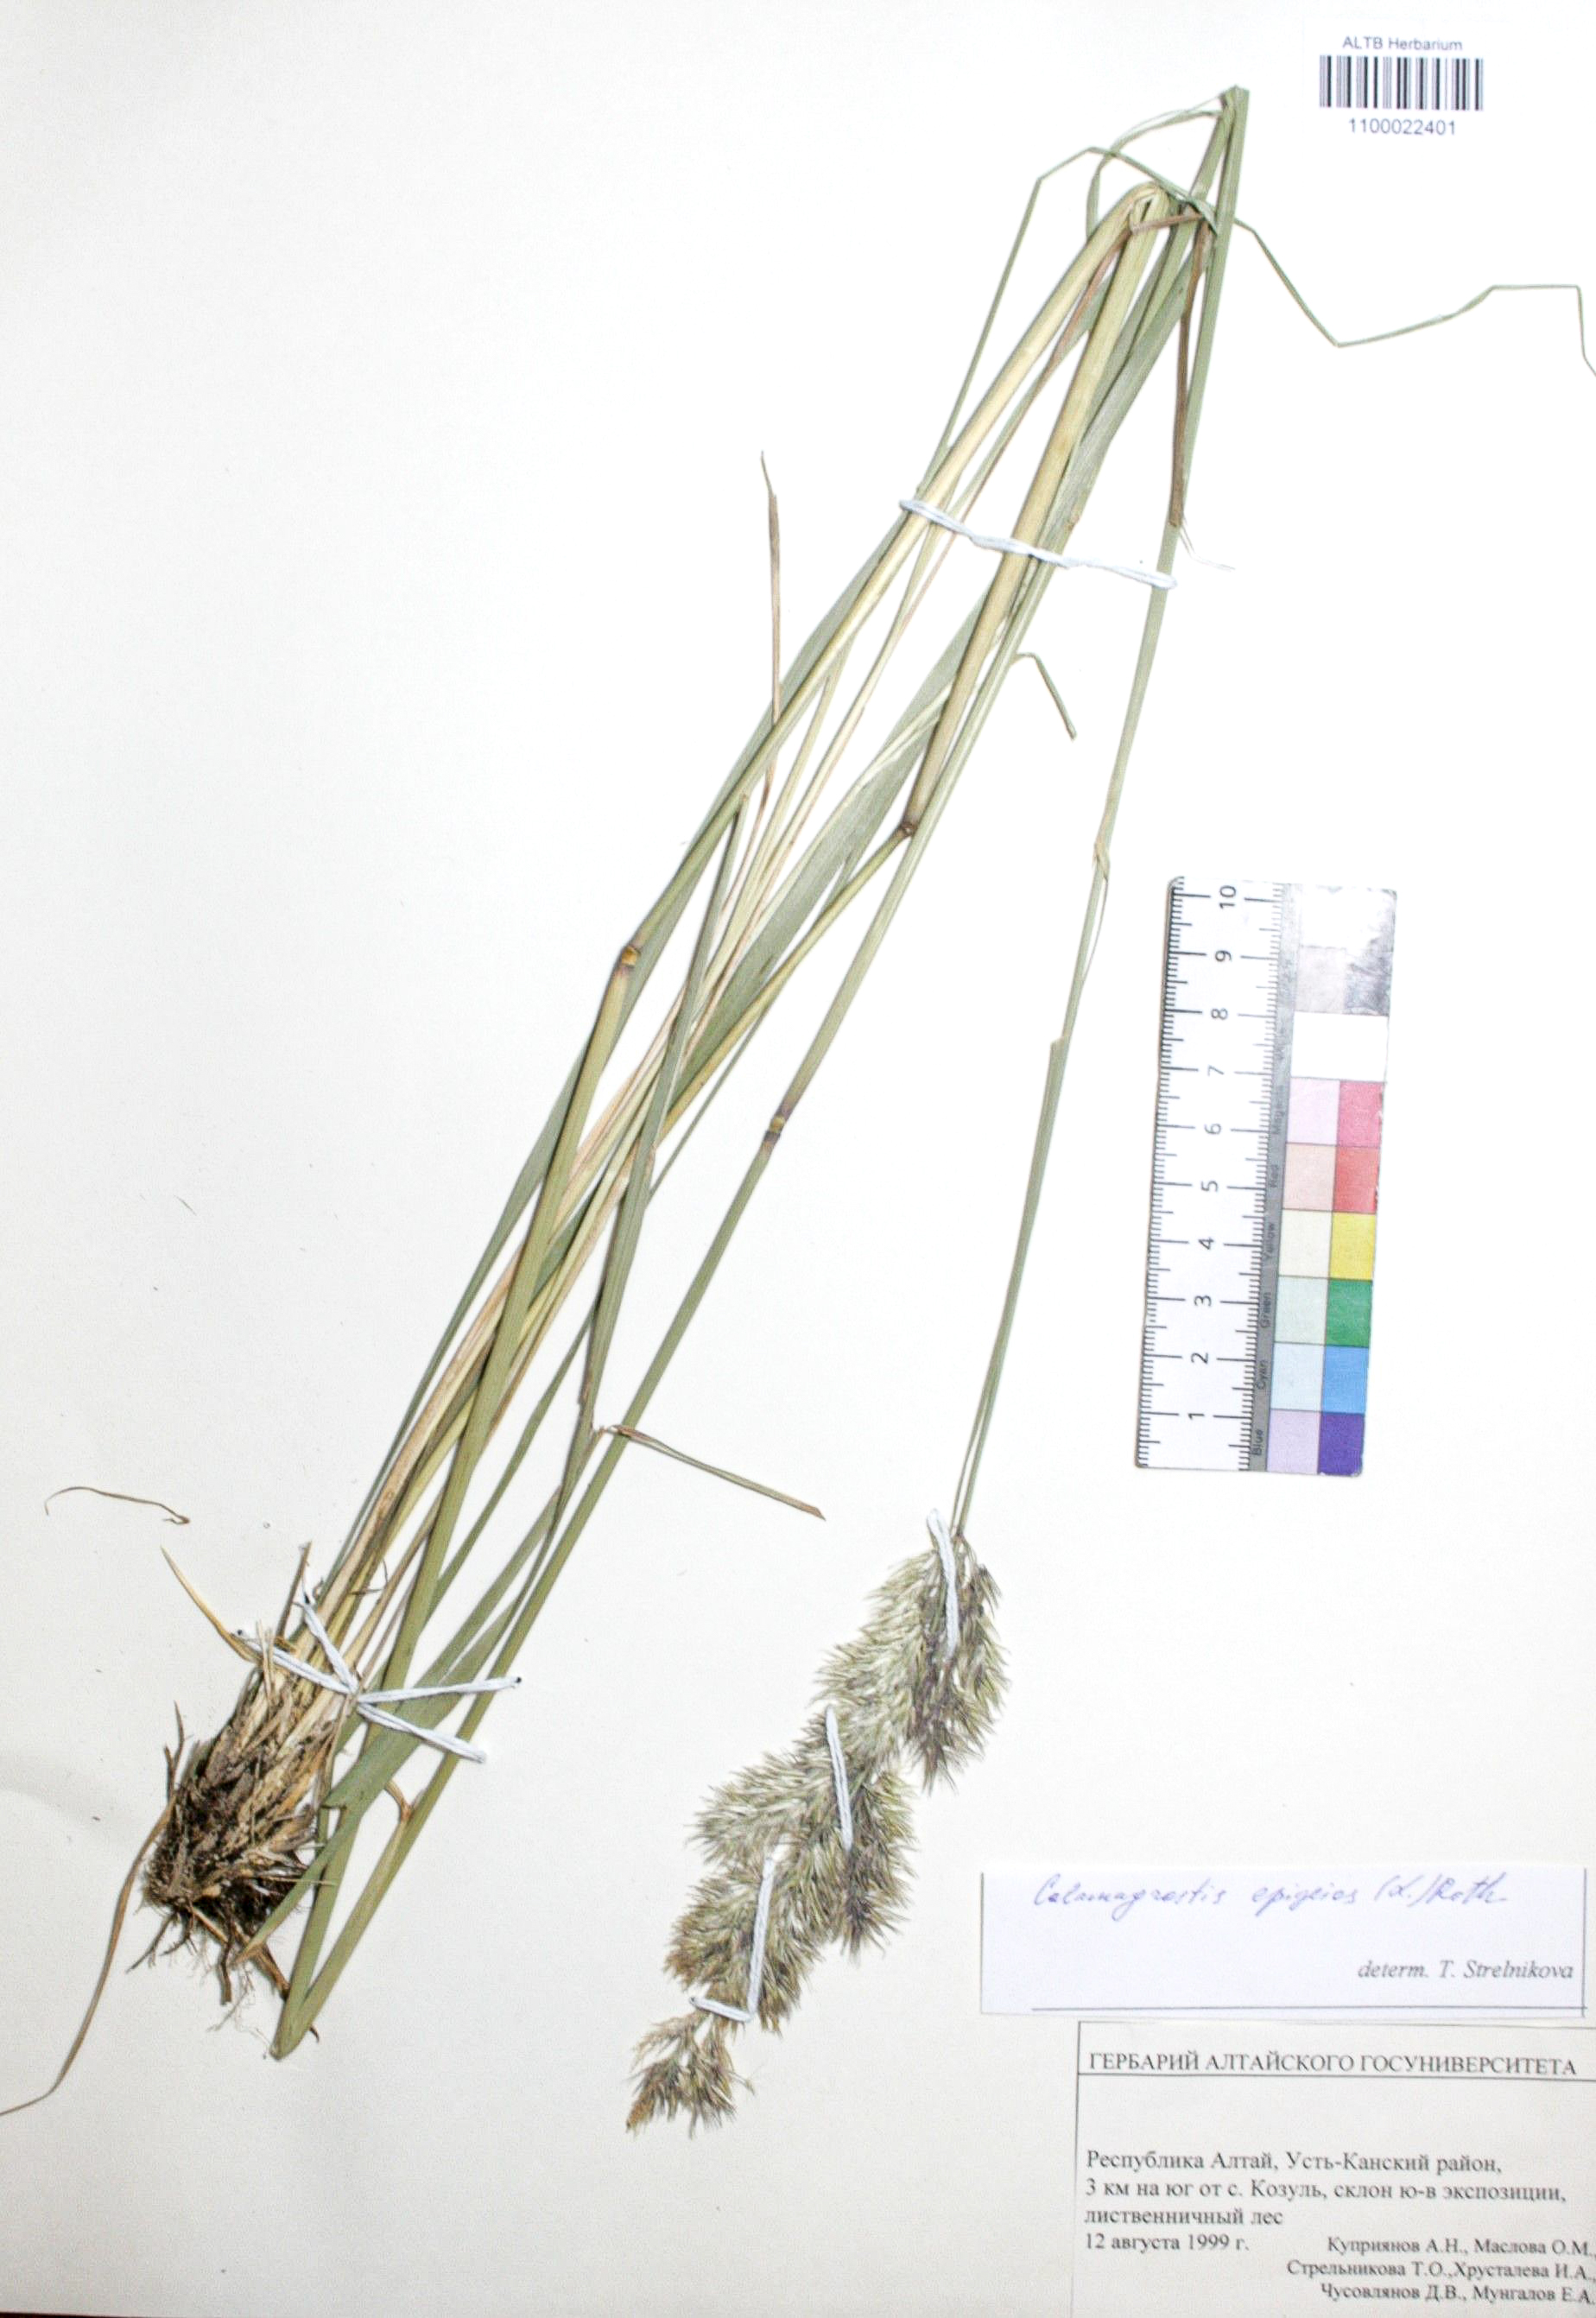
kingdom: Plantae
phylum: Tracheophyta
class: Liliopsida
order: Poales
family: Poaceae
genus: Calamagrostis
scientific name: Calamagrostis epigejos
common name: Wood small-reed
